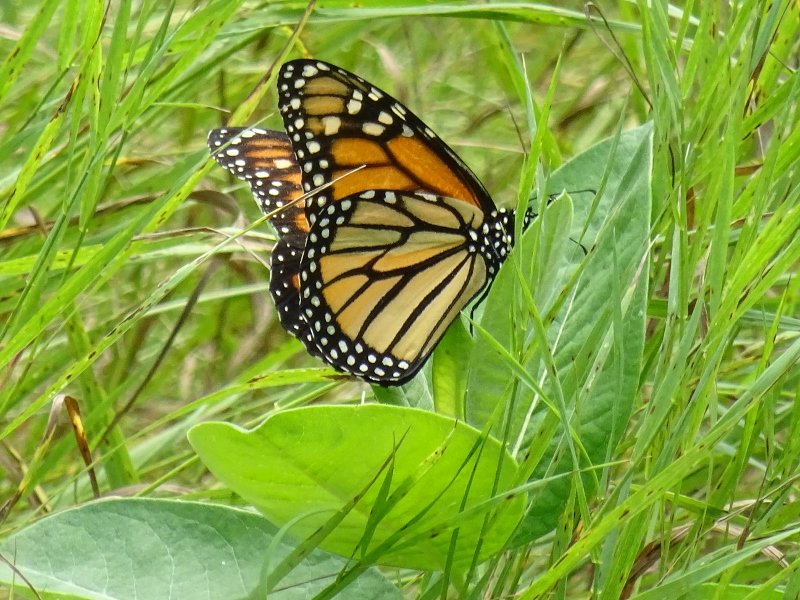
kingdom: Animalia
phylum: Arthropoda
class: Insecta
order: Lepidoptera
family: Nymphalidae
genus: Danaus
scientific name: Danaus plexippus
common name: Monarch
